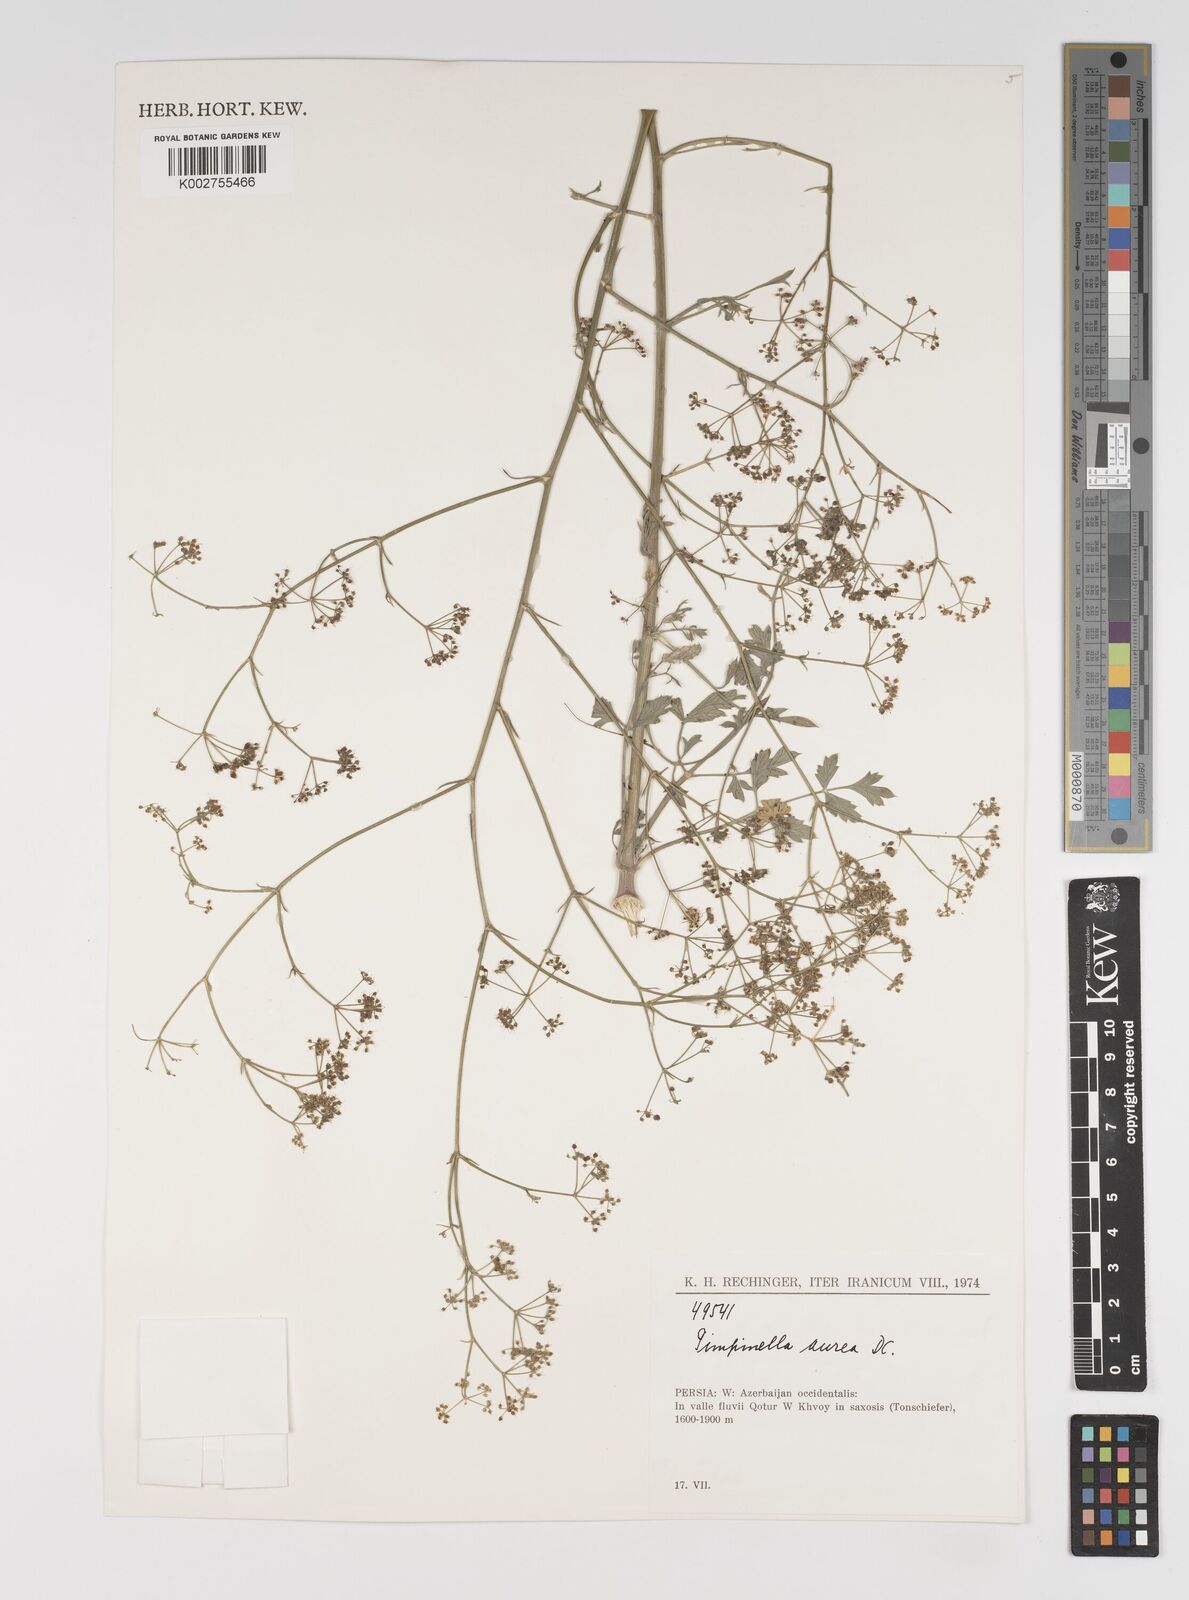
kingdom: Plantae
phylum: Tracheophyta
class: Magnoliopsida
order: Apiales
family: Apiaceae
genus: Pimpinella
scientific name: Pimpinella aurea
